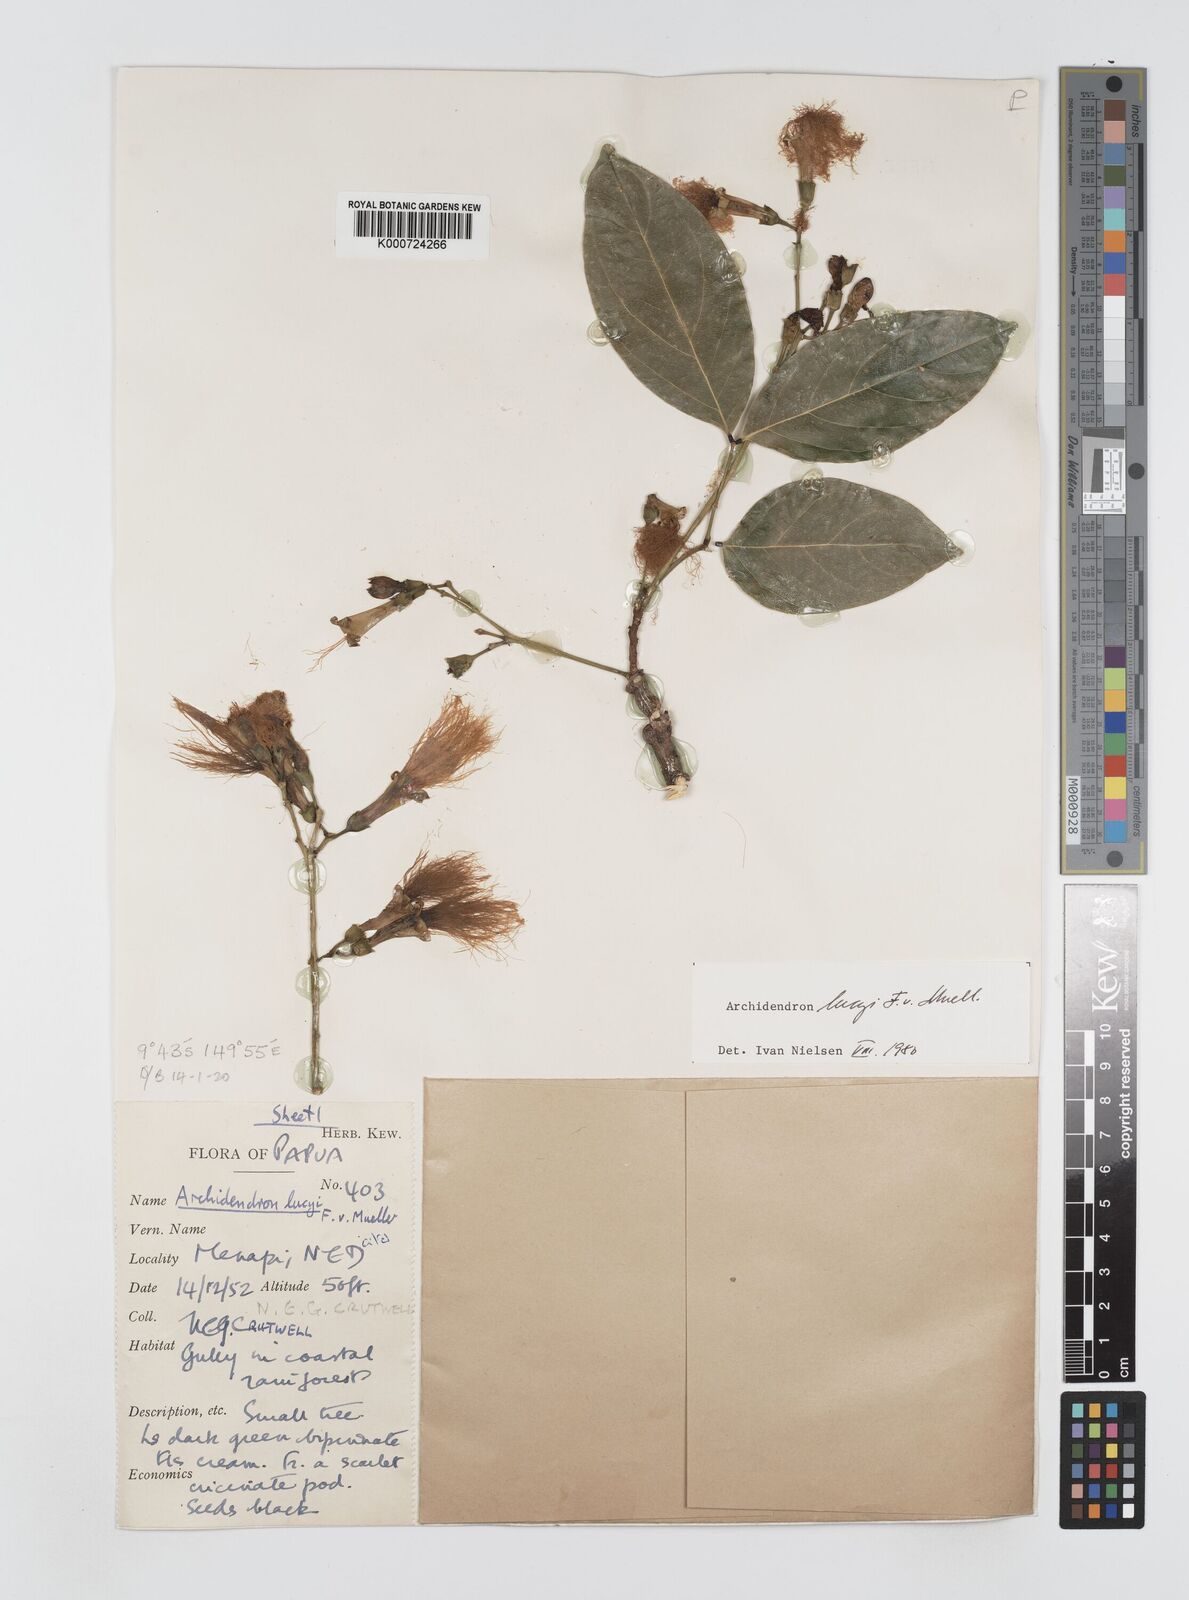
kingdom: Plantae
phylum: Tracheophyta
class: Magnoliopsida
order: Fabales
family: Fabaceae
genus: Archidendron
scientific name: Archidendron lucyi
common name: Scarlet bean
